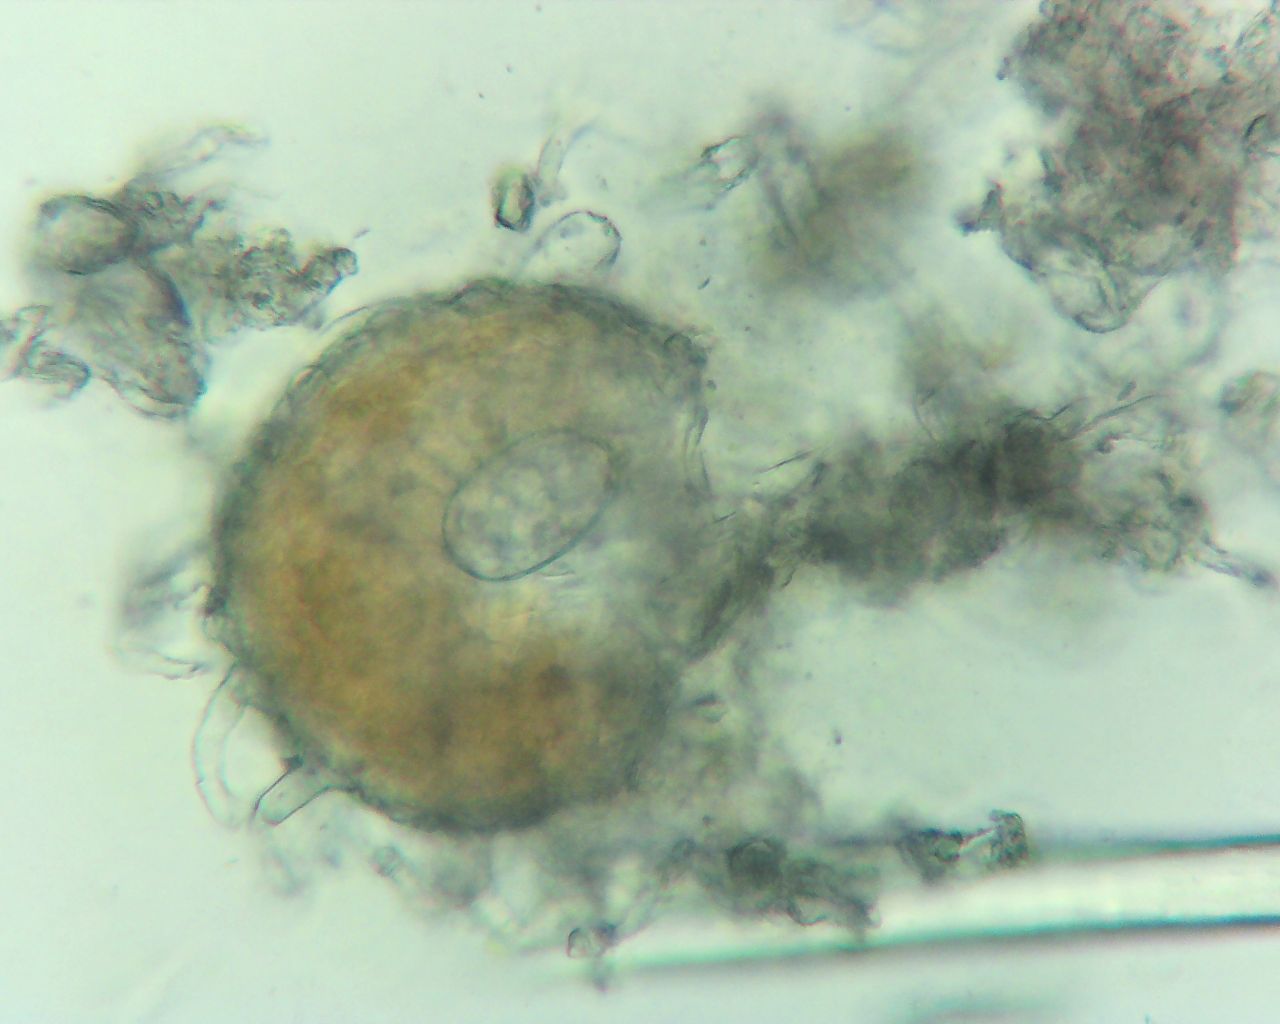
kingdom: Fungi
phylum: Ascomycota
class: Leotiomycetes
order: Helotiales
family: Erysiphaceae
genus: Erysiphe
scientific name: Erysiphe trifoliorum
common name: kløver-meldug
